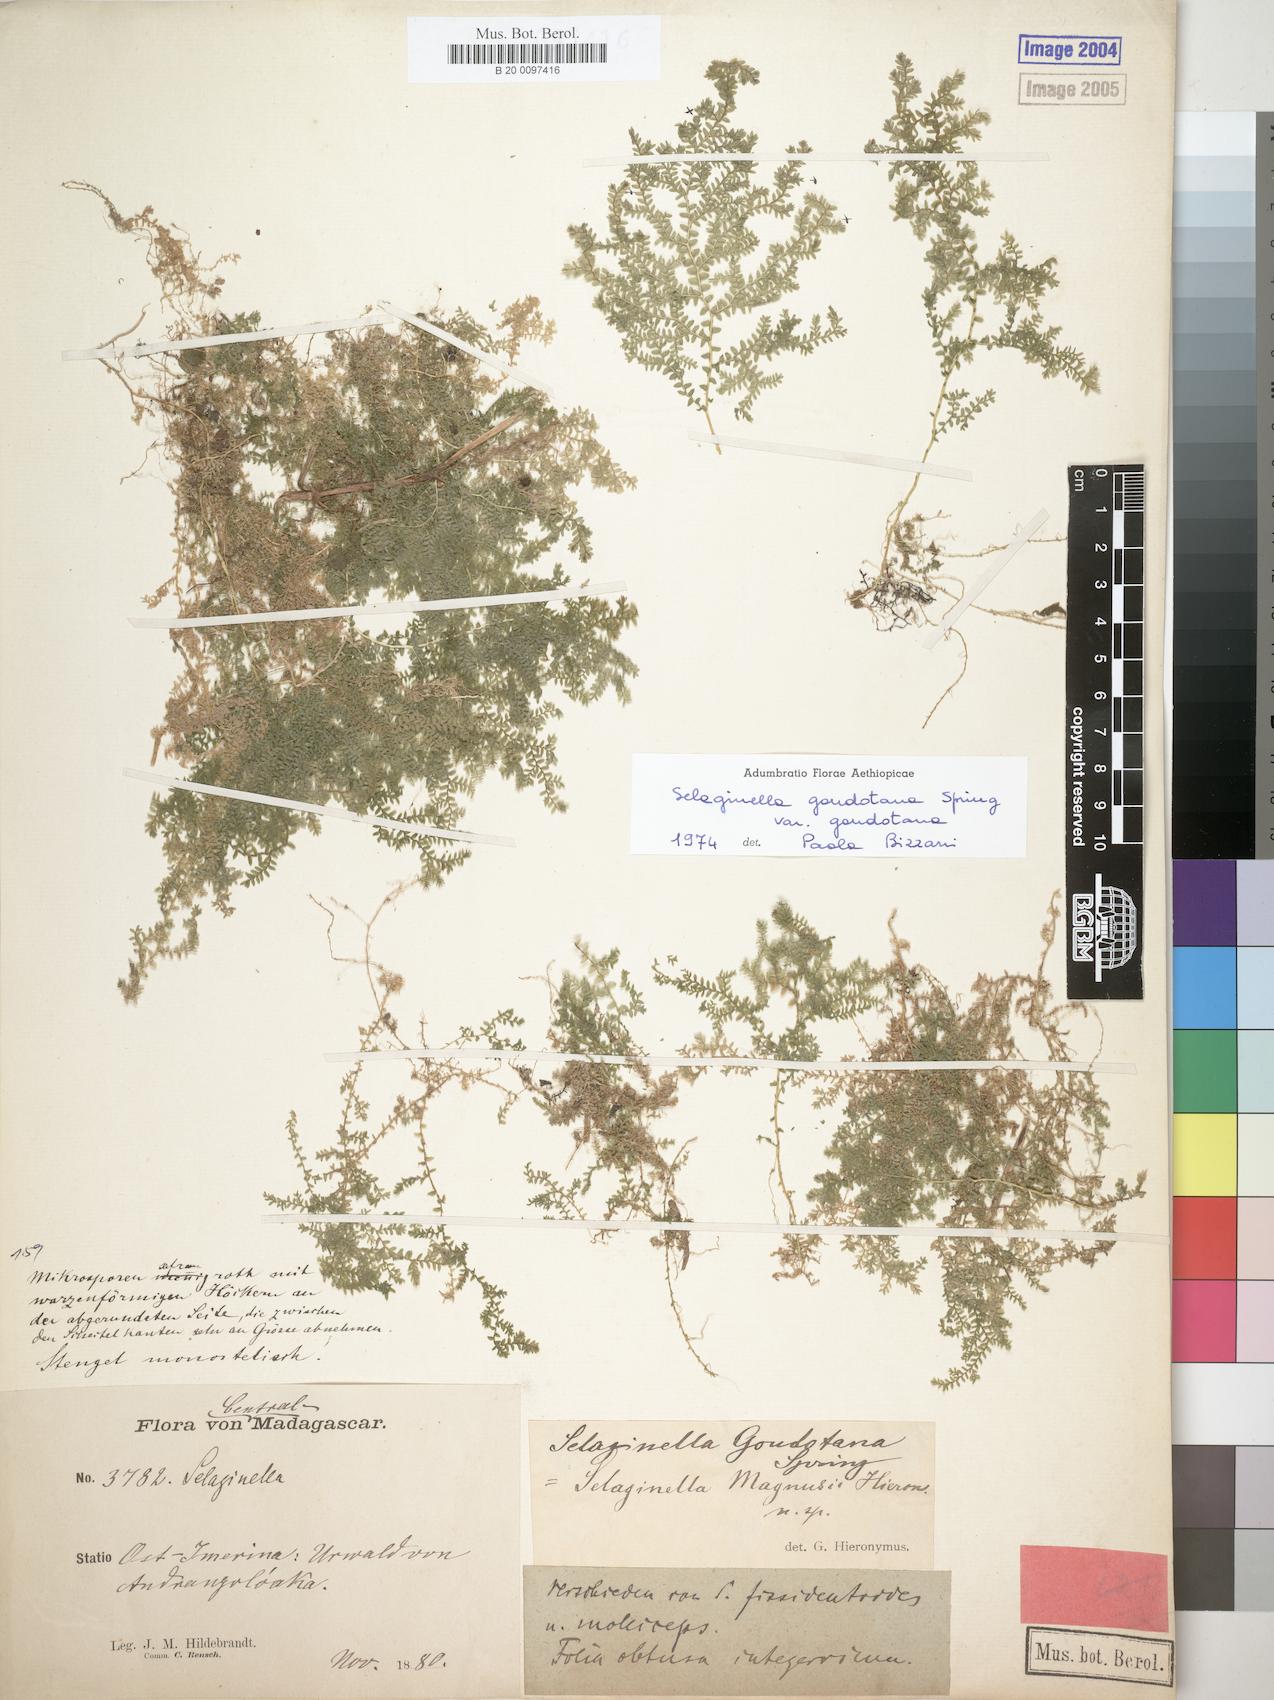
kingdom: Plantae
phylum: Tracheophyta
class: Lycopodiopsida
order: Selaginellales
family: Selaginellaceae
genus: Selaginella
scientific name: Selaginella goudotiana
